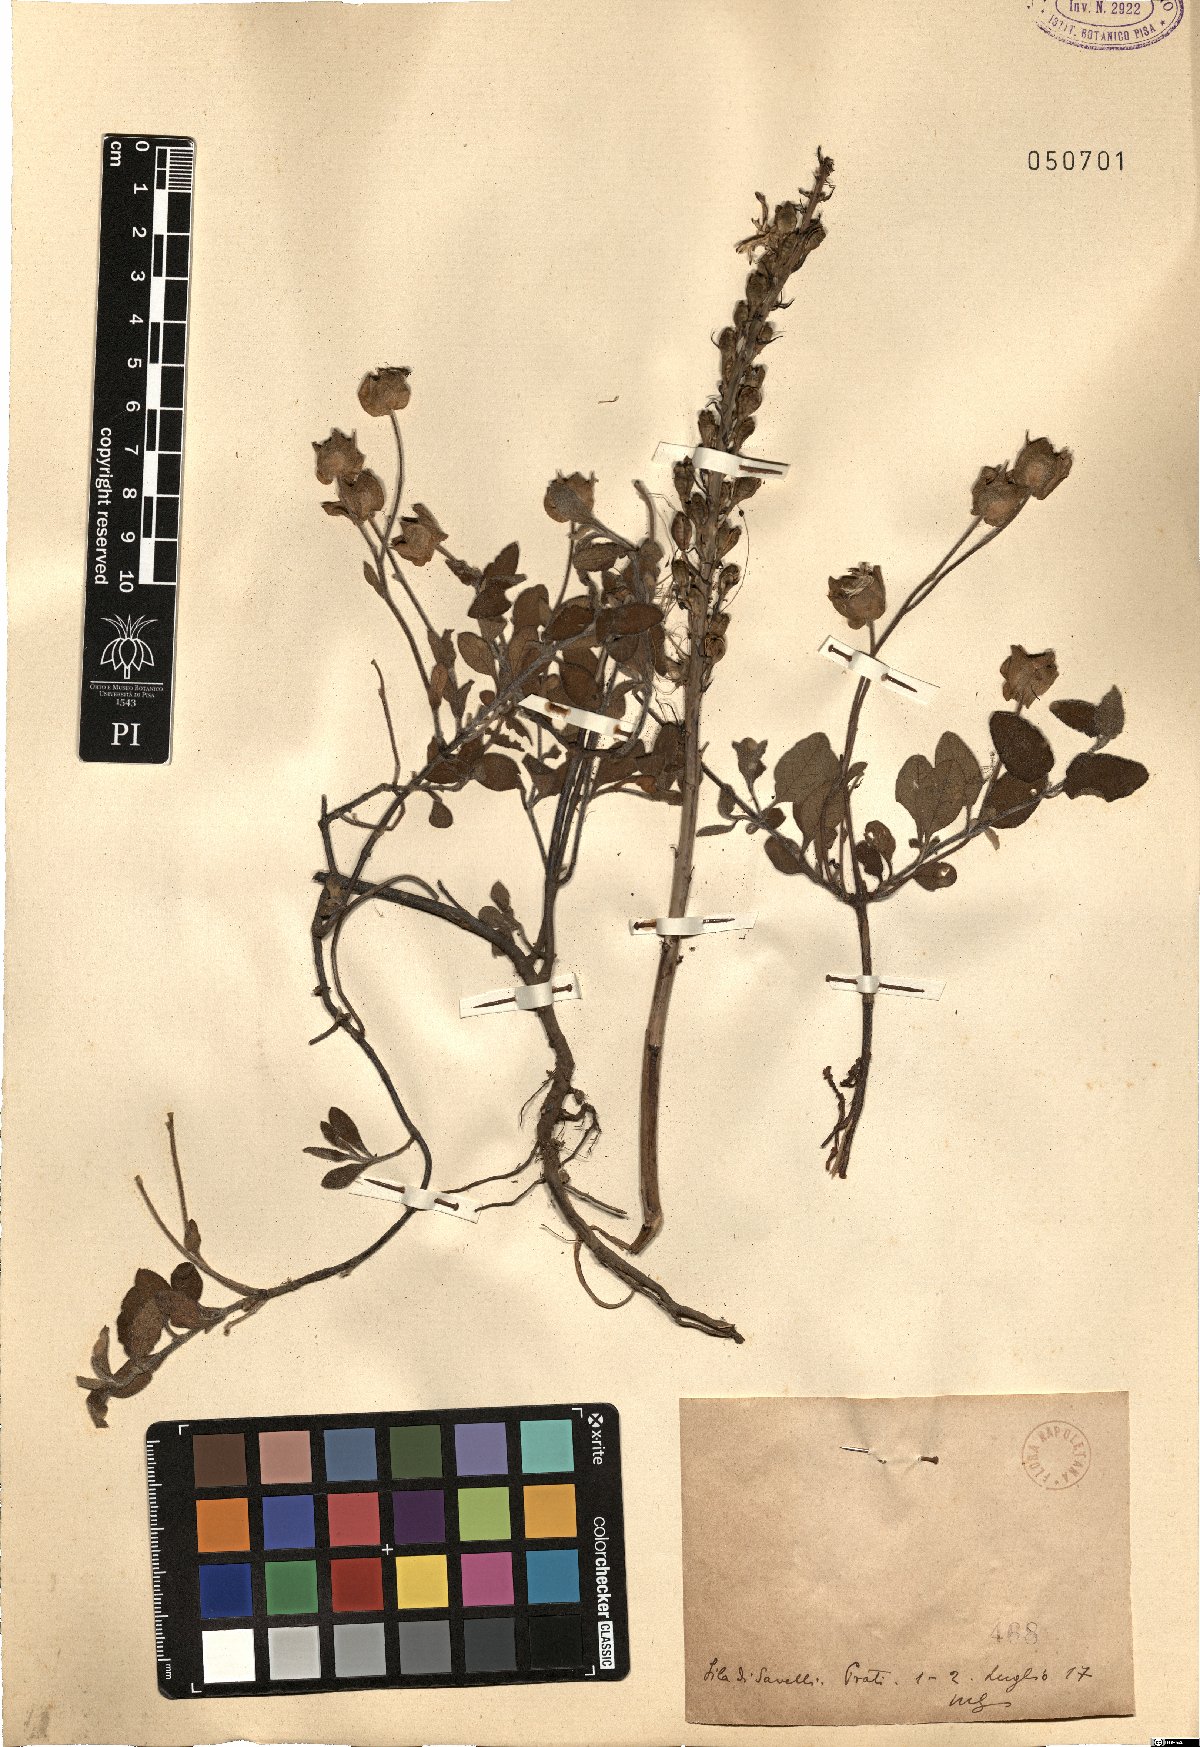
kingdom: Plantae
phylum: Tracheophyta
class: Magnoliopsida
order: Malvales
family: Cistaceae
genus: Cistus
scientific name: Cistus
